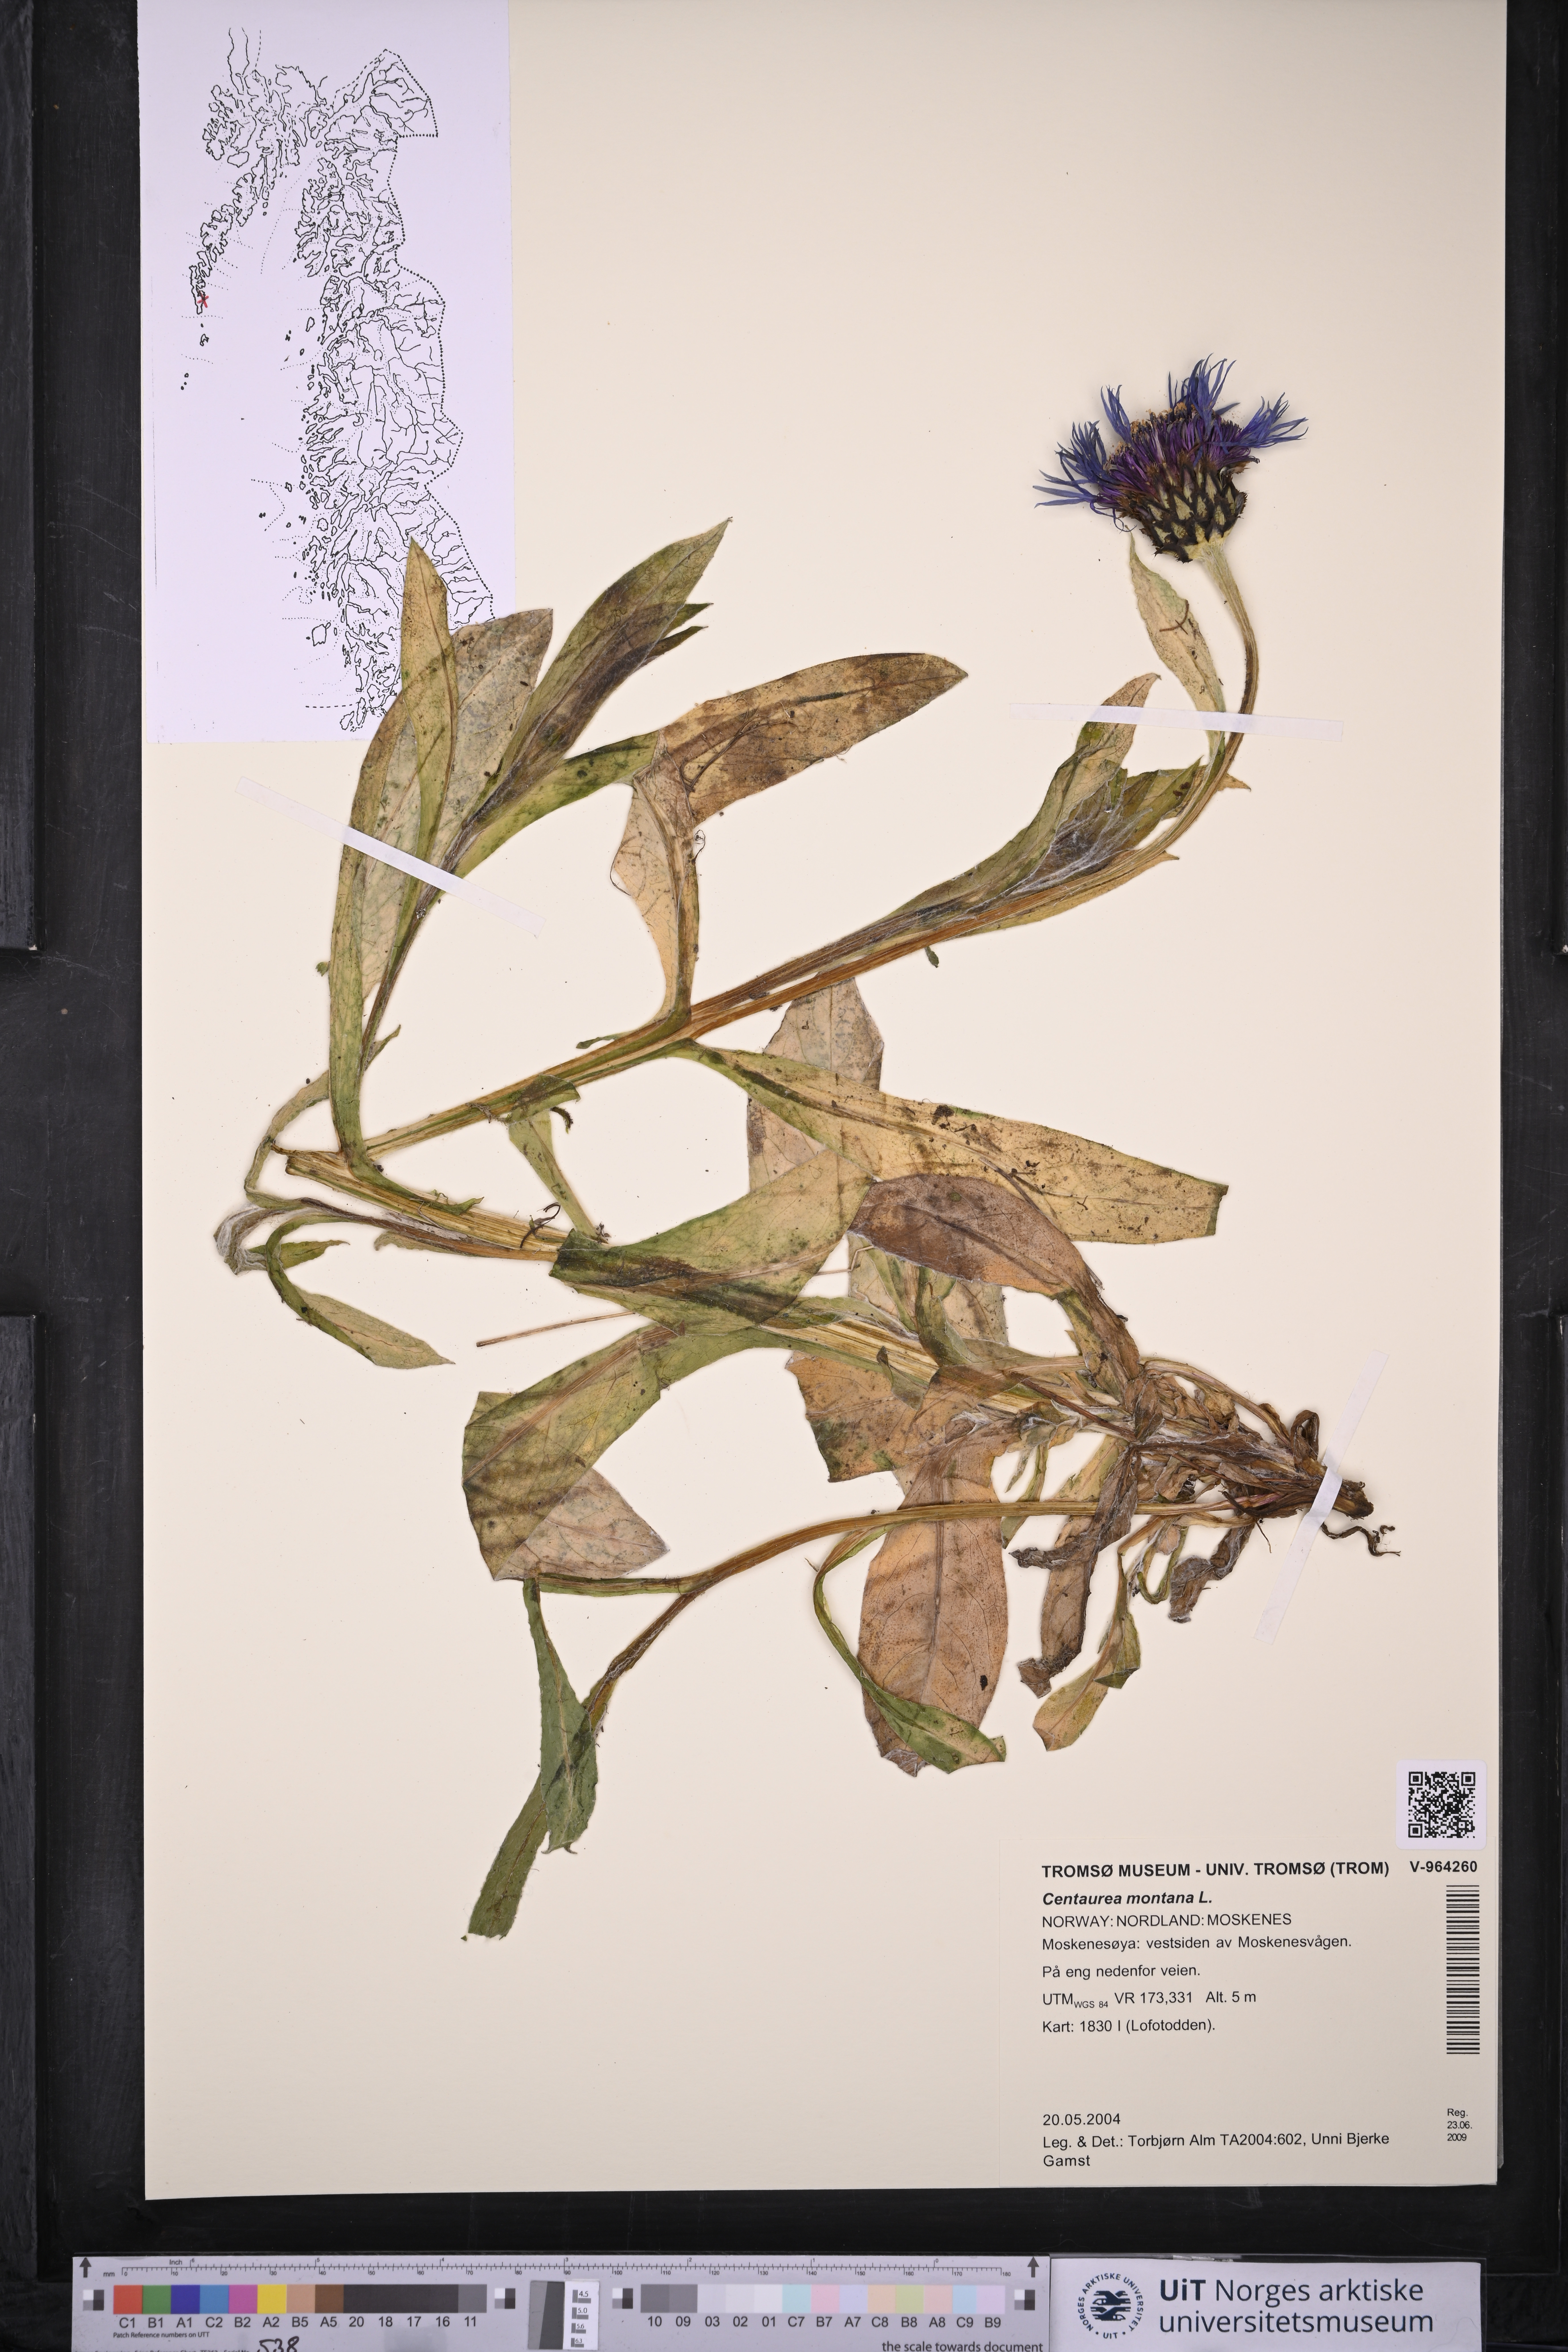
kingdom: Plantae
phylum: Tracheophyta
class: Magnoliopsida
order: Asterales
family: Asteraceae
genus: Centaurea
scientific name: Centaurea montana
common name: Perennial cornflower
